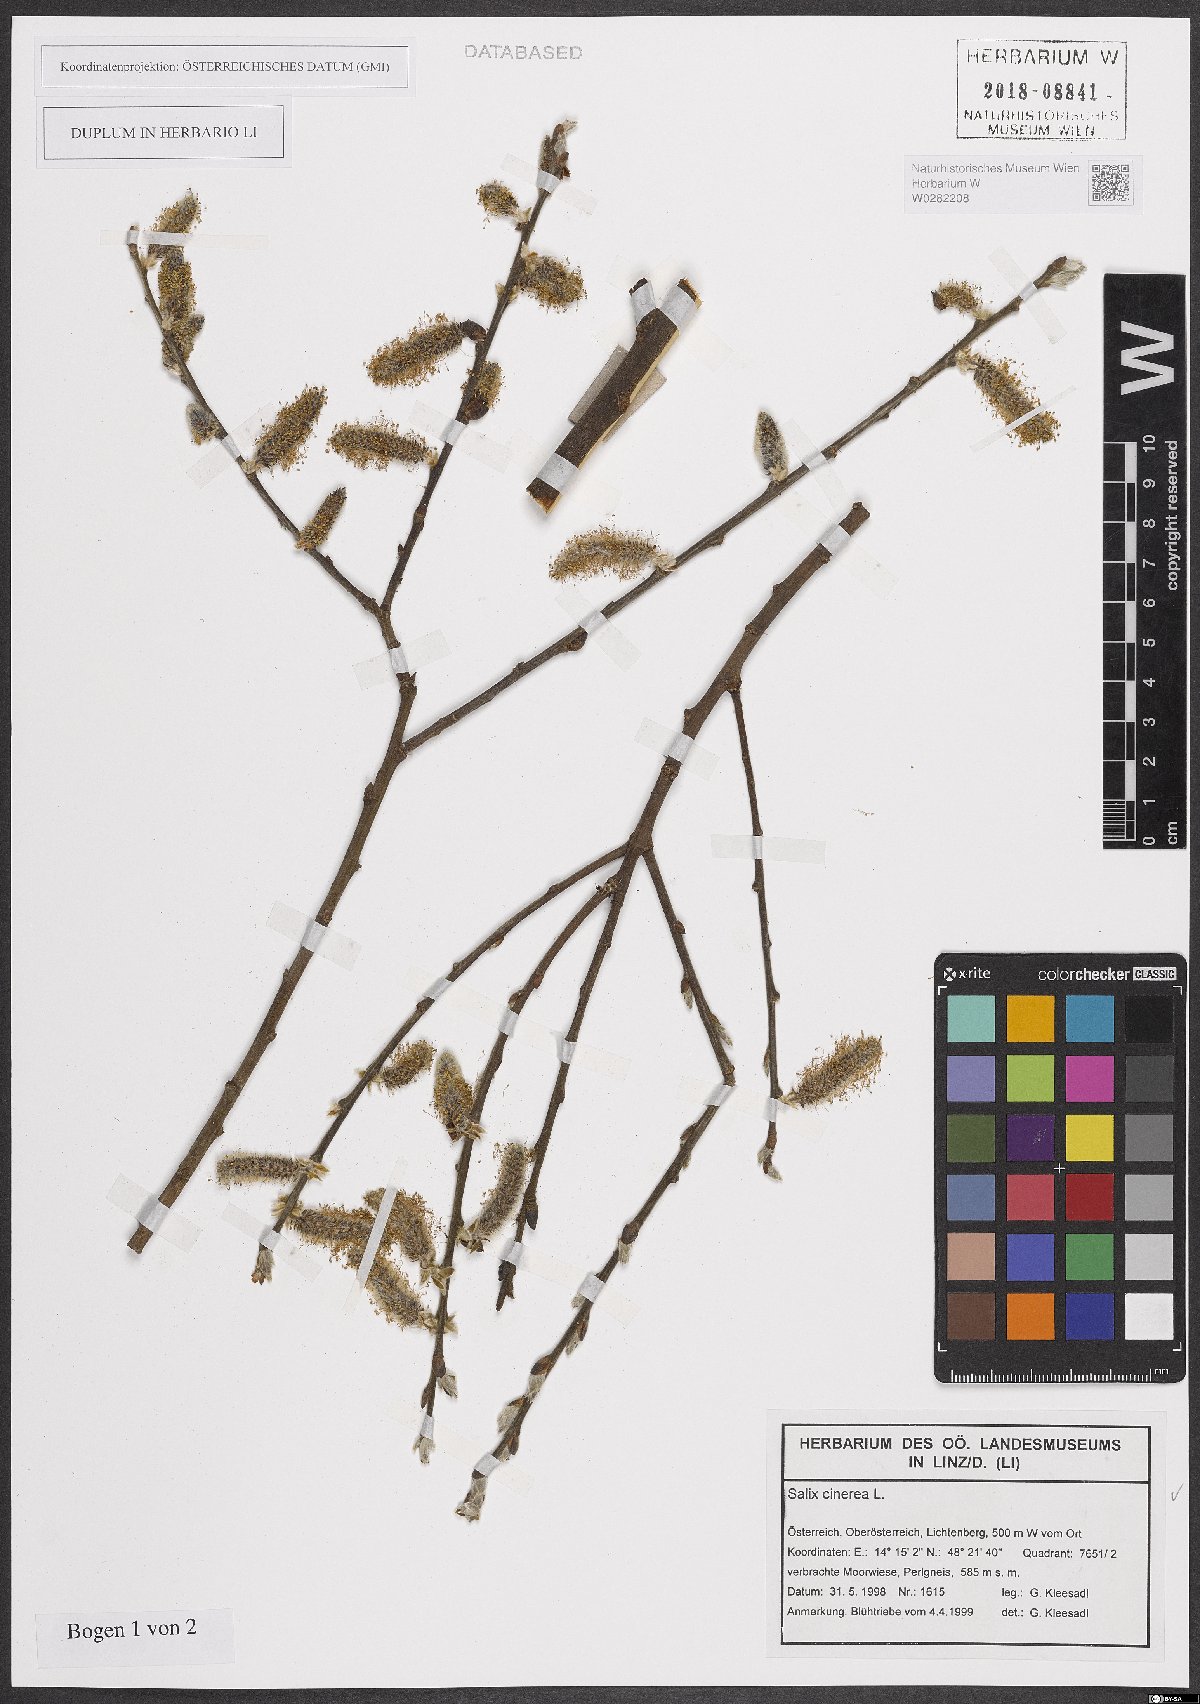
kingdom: Plantae
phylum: Tracheophyta
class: Magnoliopsida
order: Malpighiales
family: Salicaceae
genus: Salix
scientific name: Salix cinerea
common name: Common sallow
